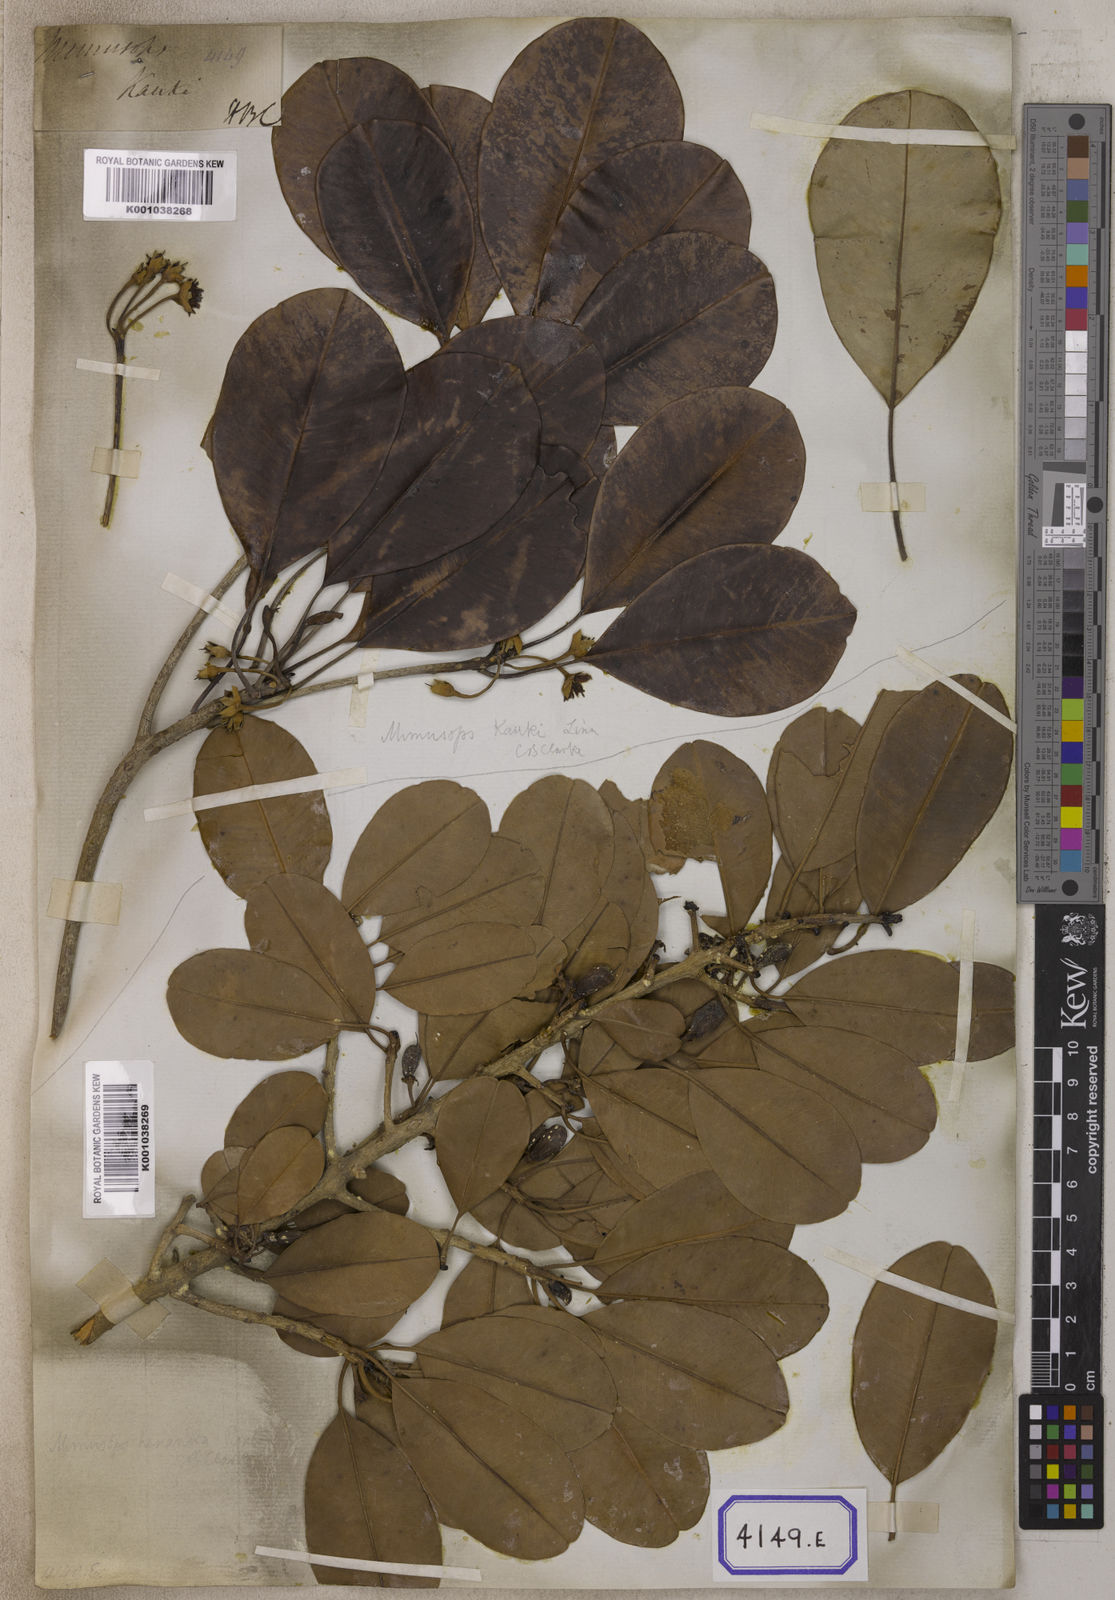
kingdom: Plantae
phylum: Tracheophyta
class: Magnoliopsida
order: Ericales
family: Sapotaceae
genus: Manilkara
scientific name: Manilkara kauki
